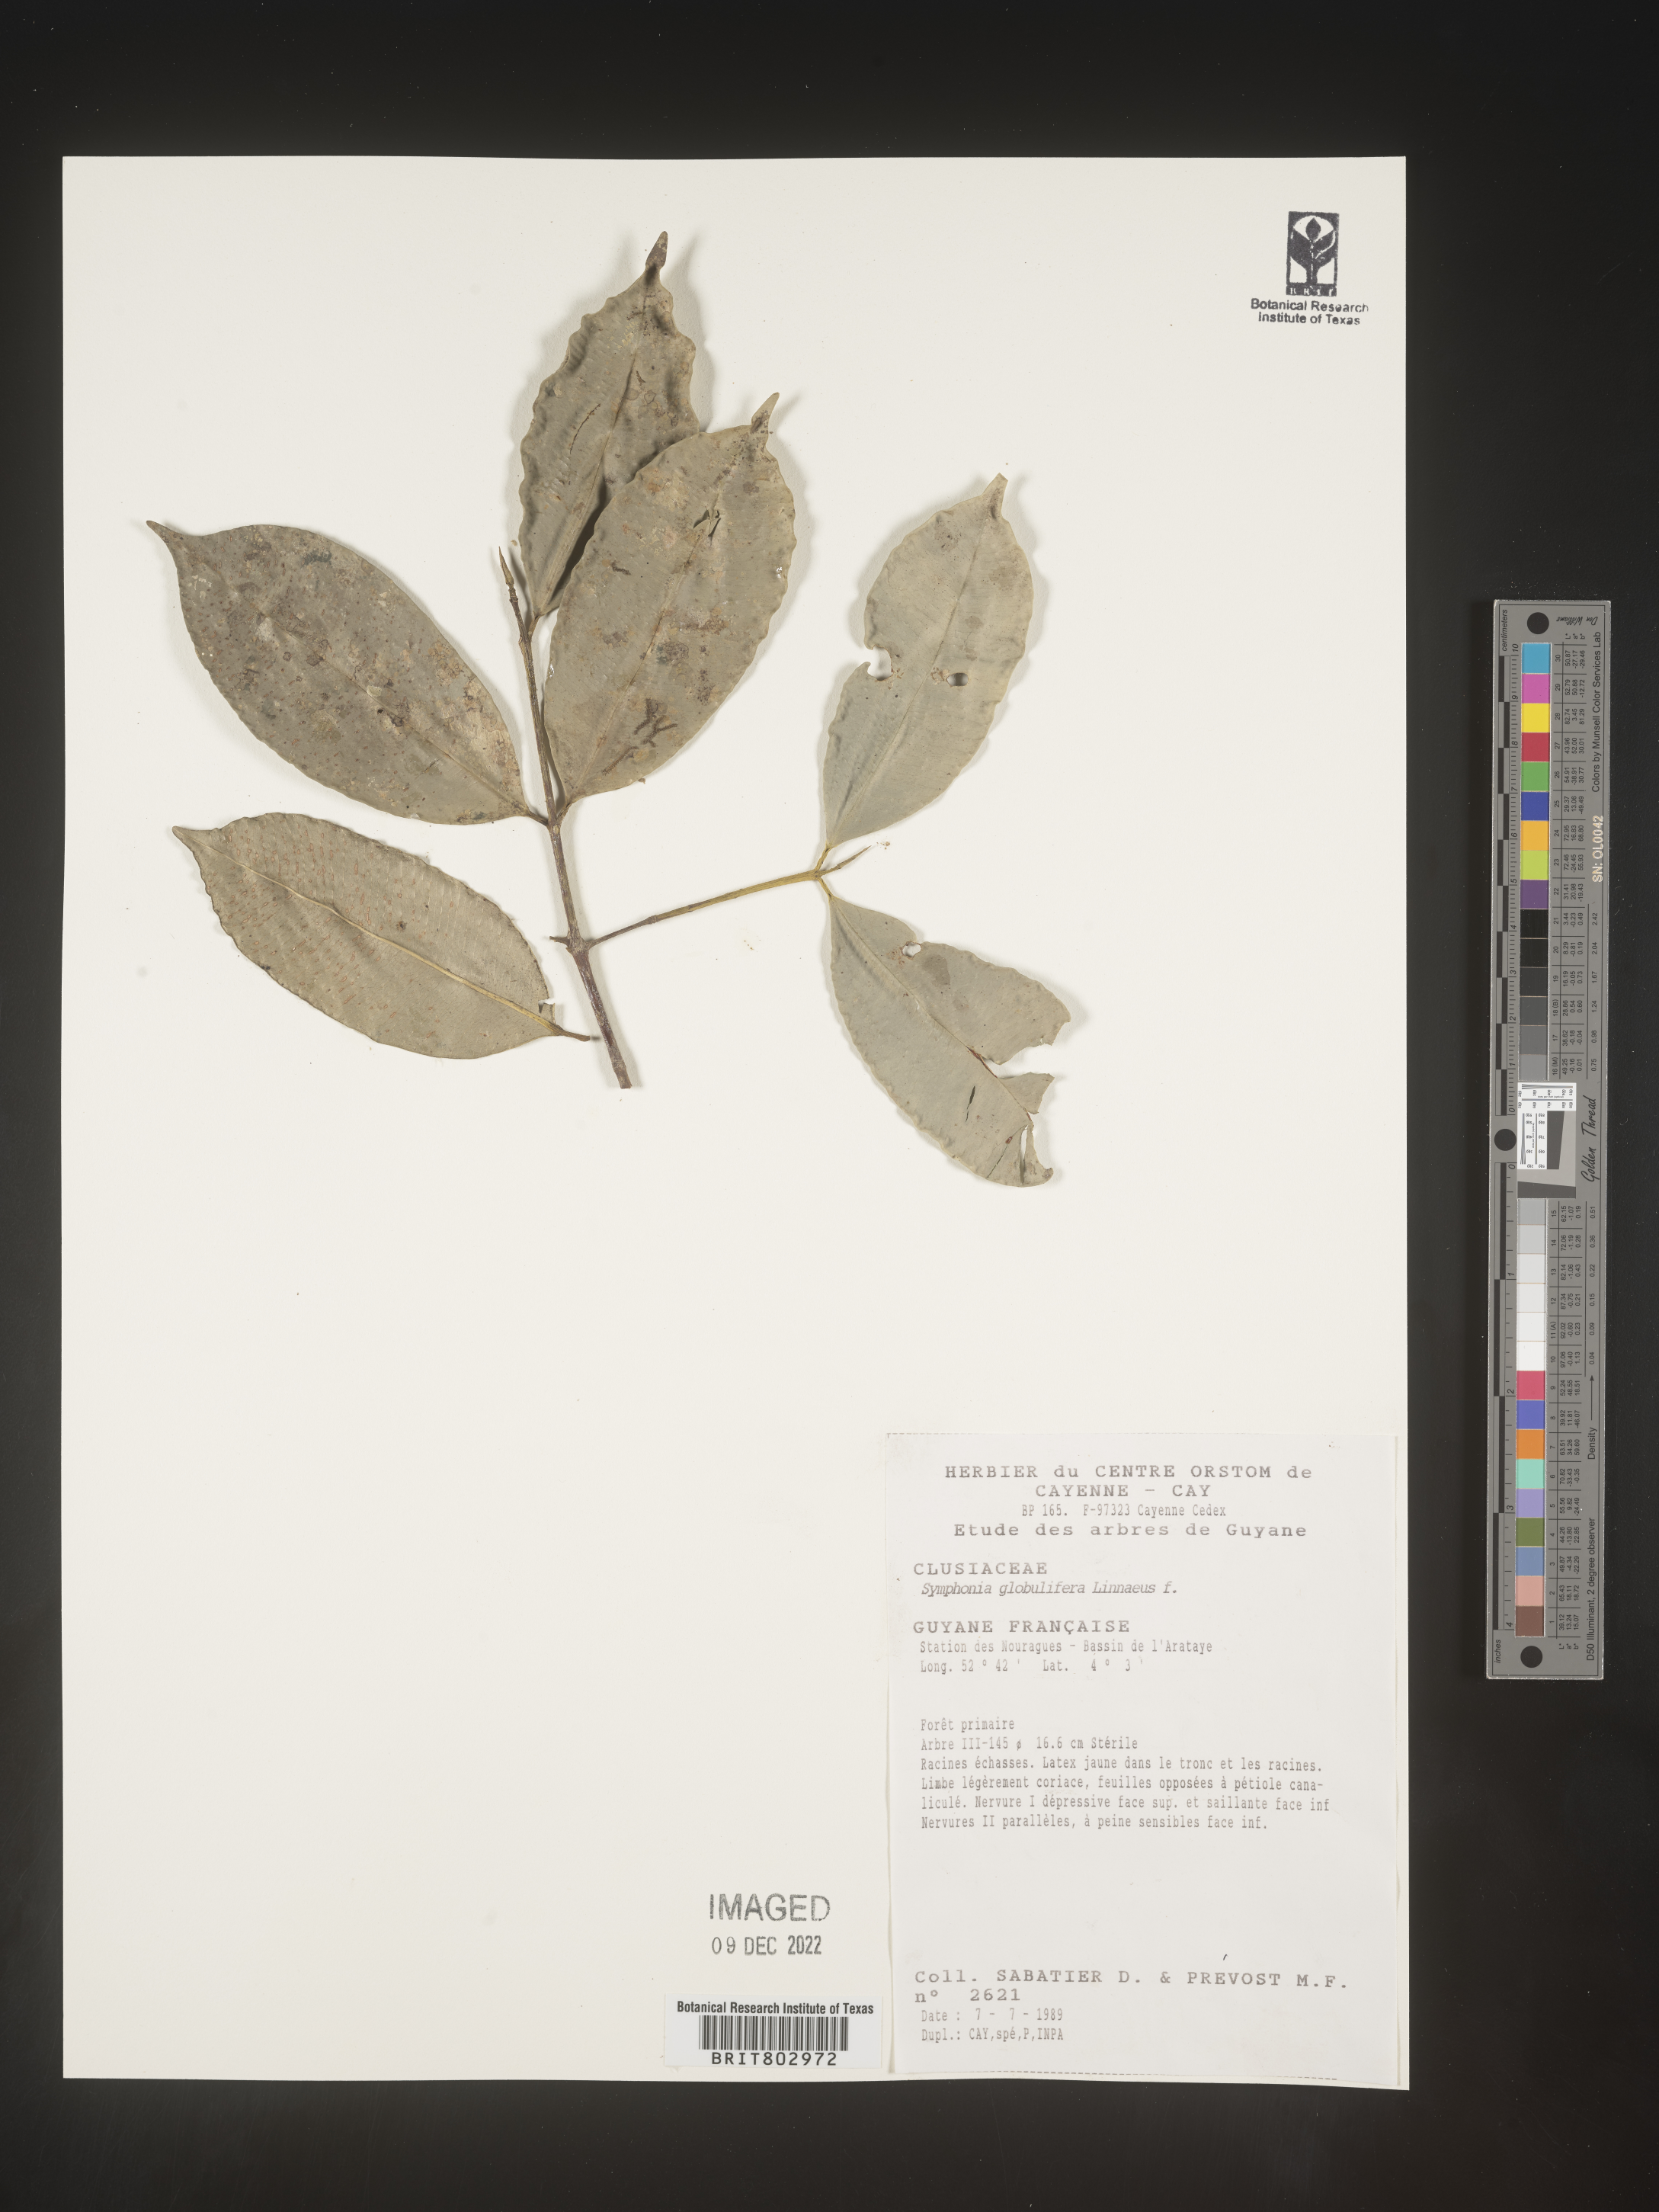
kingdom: Plantae
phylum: Tracheophyta
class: Magnoliopsida
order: Malpighiales
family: Clusiaceae
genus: Symphonia
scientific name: Symphonia globulifera
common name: Boarwood
